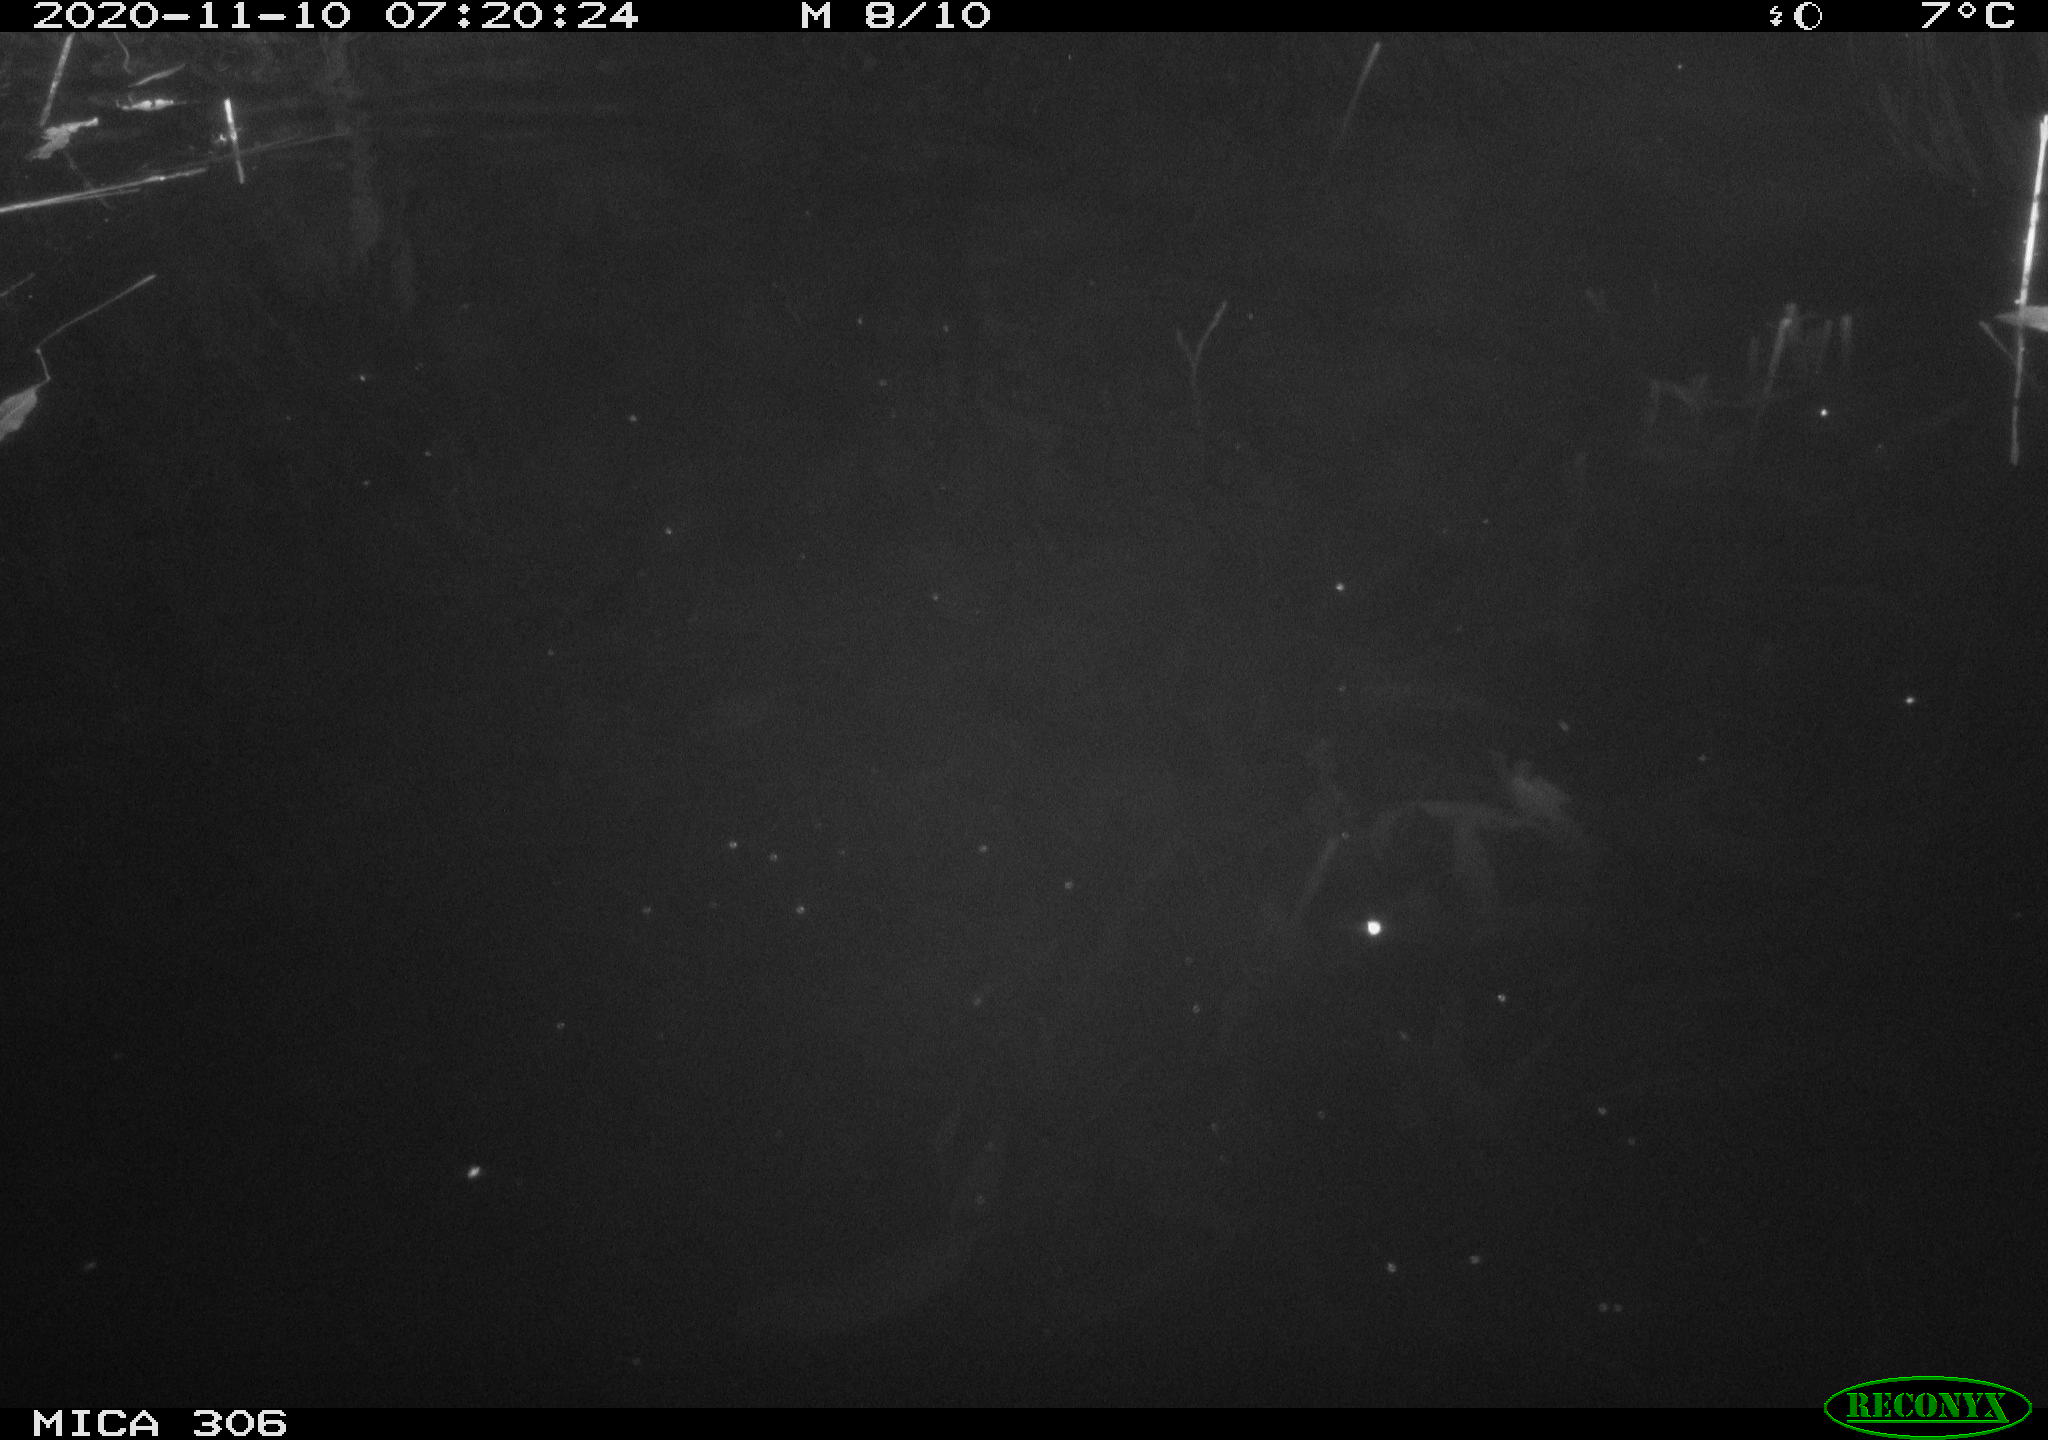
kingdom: Animalia
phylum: Chordata
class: Mammalia
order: Rodentia
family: Muridae
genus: Rattus
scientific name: Rattus norvegicus
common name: Brown rat
